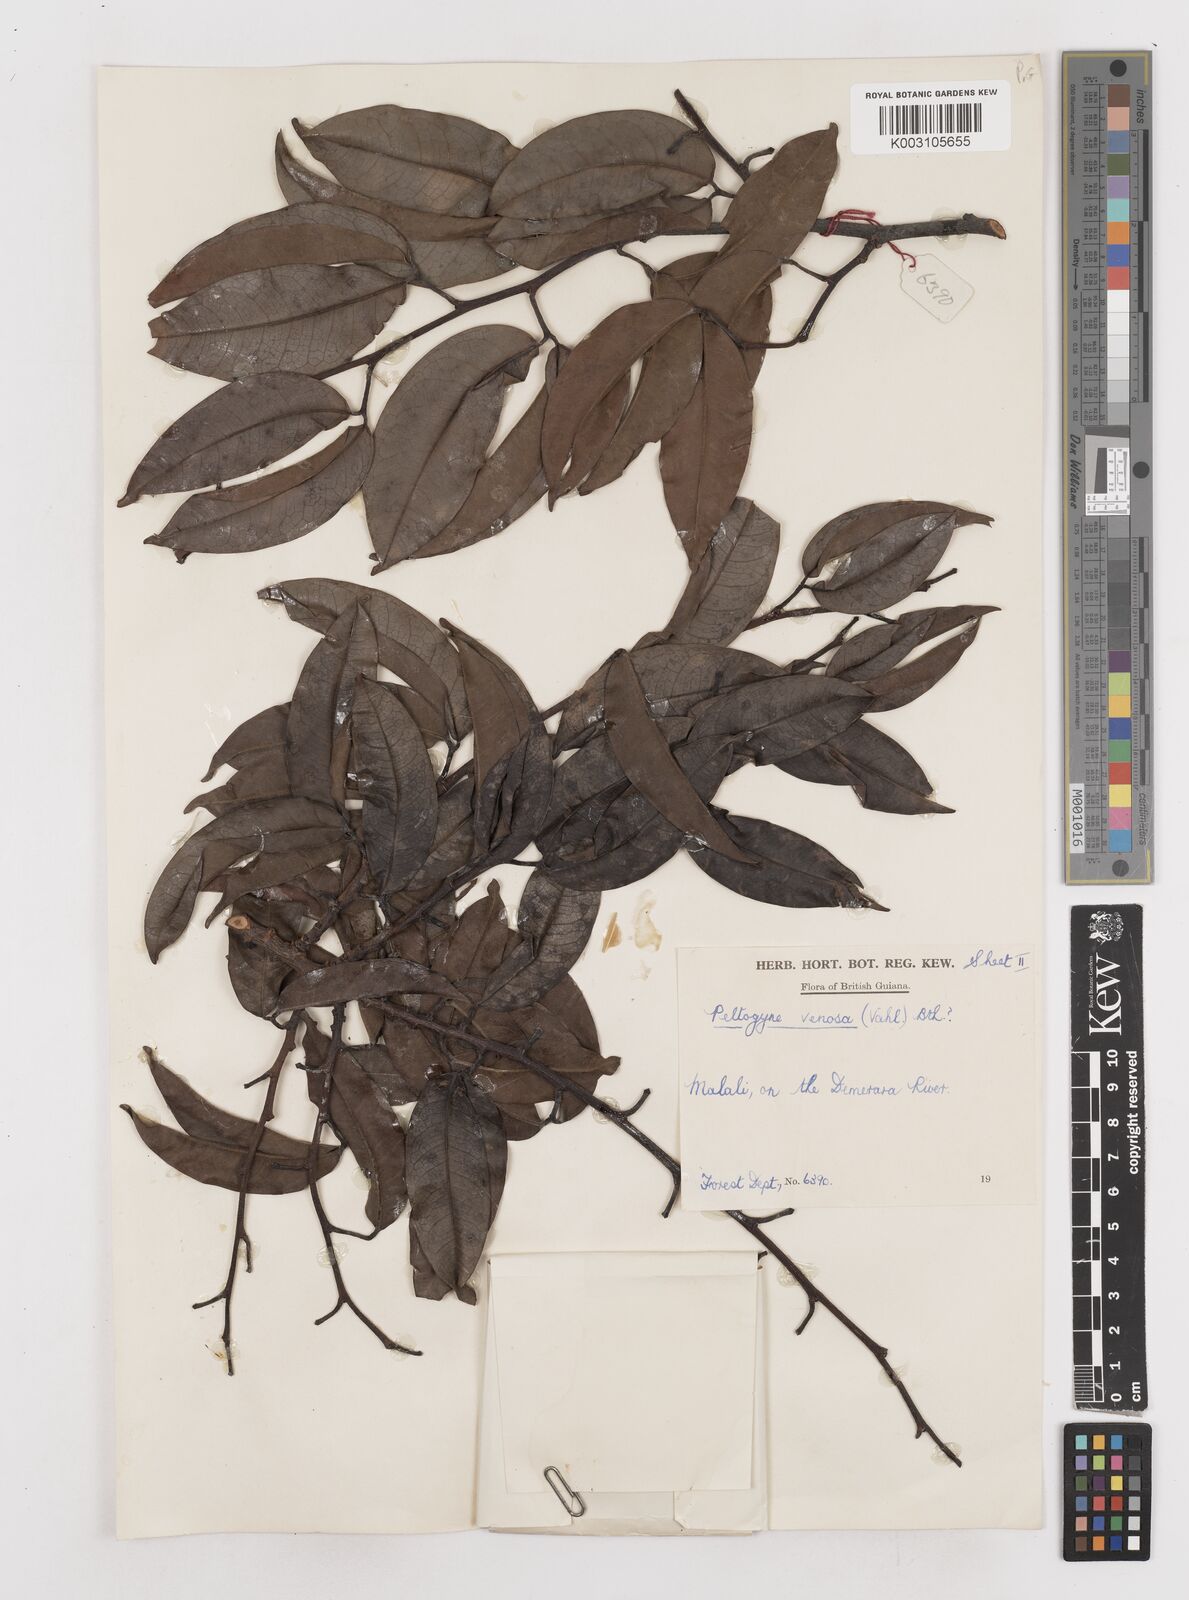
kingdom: Plantae
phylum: Tracheophyta
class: Magnoliopsida
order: Fabales
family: Fabaceae
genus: Peltogyne
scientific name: Peltogyne venosa
